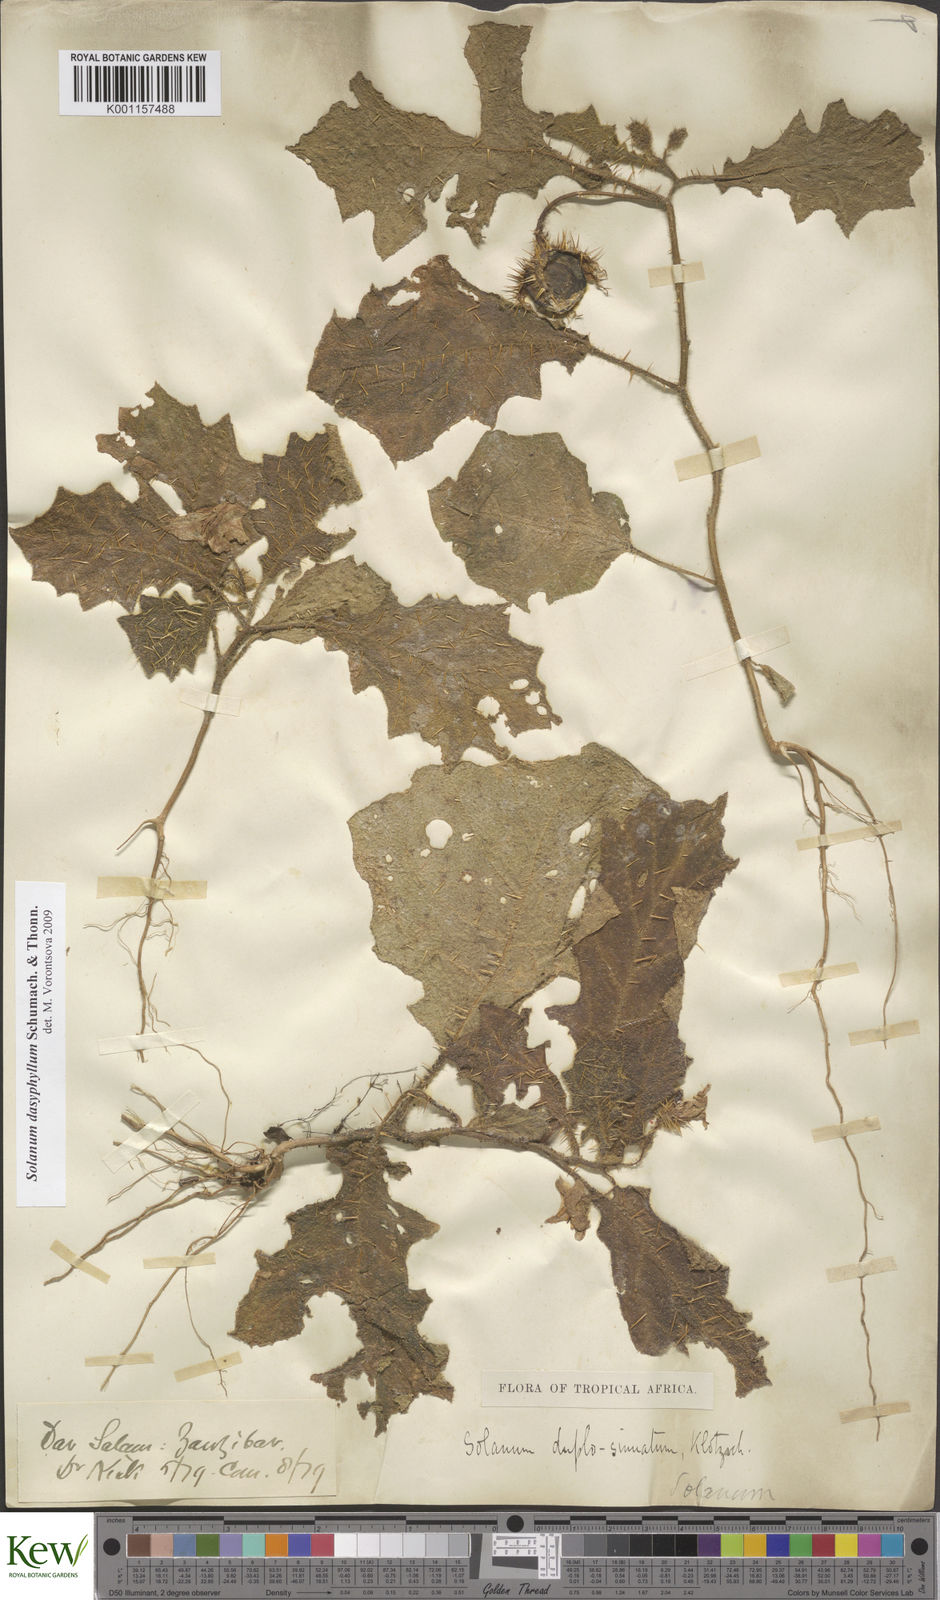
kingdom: Plantae
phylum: Tracheophyta
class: Magnoliopsida
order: Solanales
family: Solanaceae
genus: Solanum
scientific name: Solanum dasyphyllum
